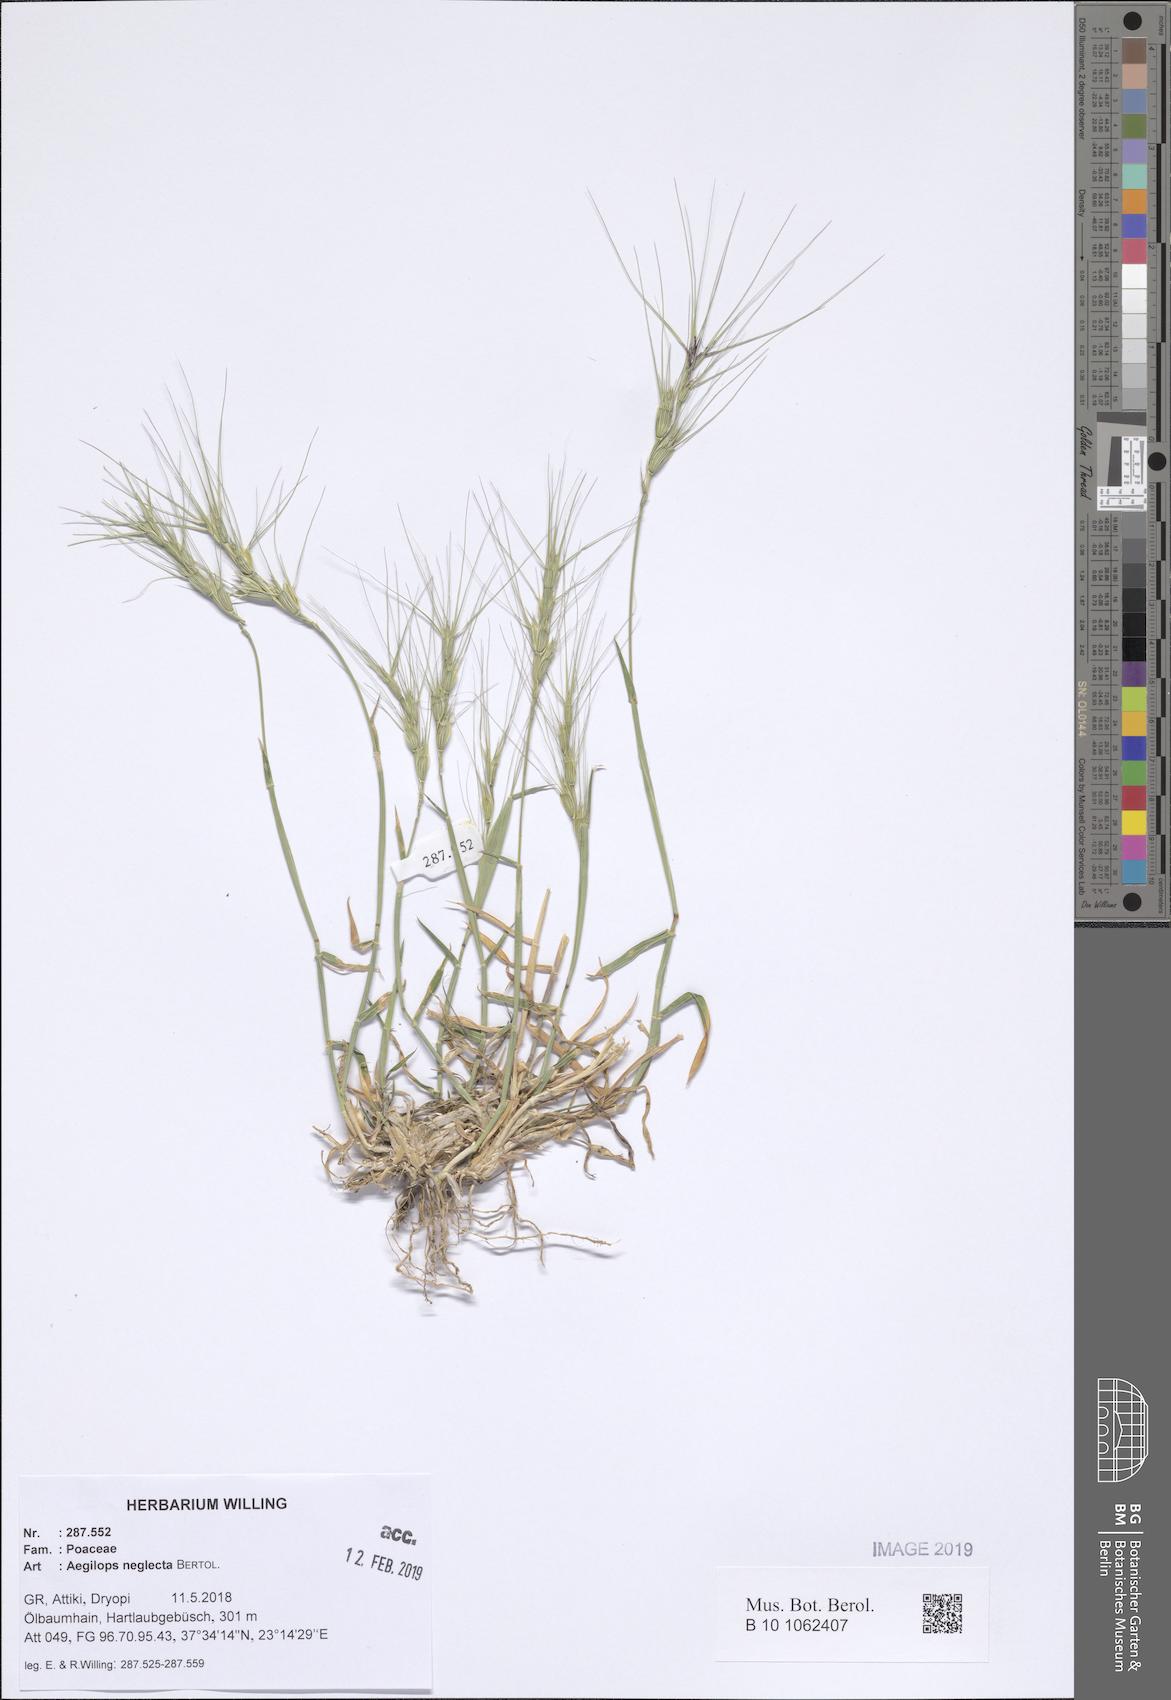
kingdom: Plantae
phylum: Tracheophyta
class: Liliopsida
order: Poales
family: Poaceae
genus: Aegilops
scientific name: Aegilops neglecta
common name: Three-awn goat grass
